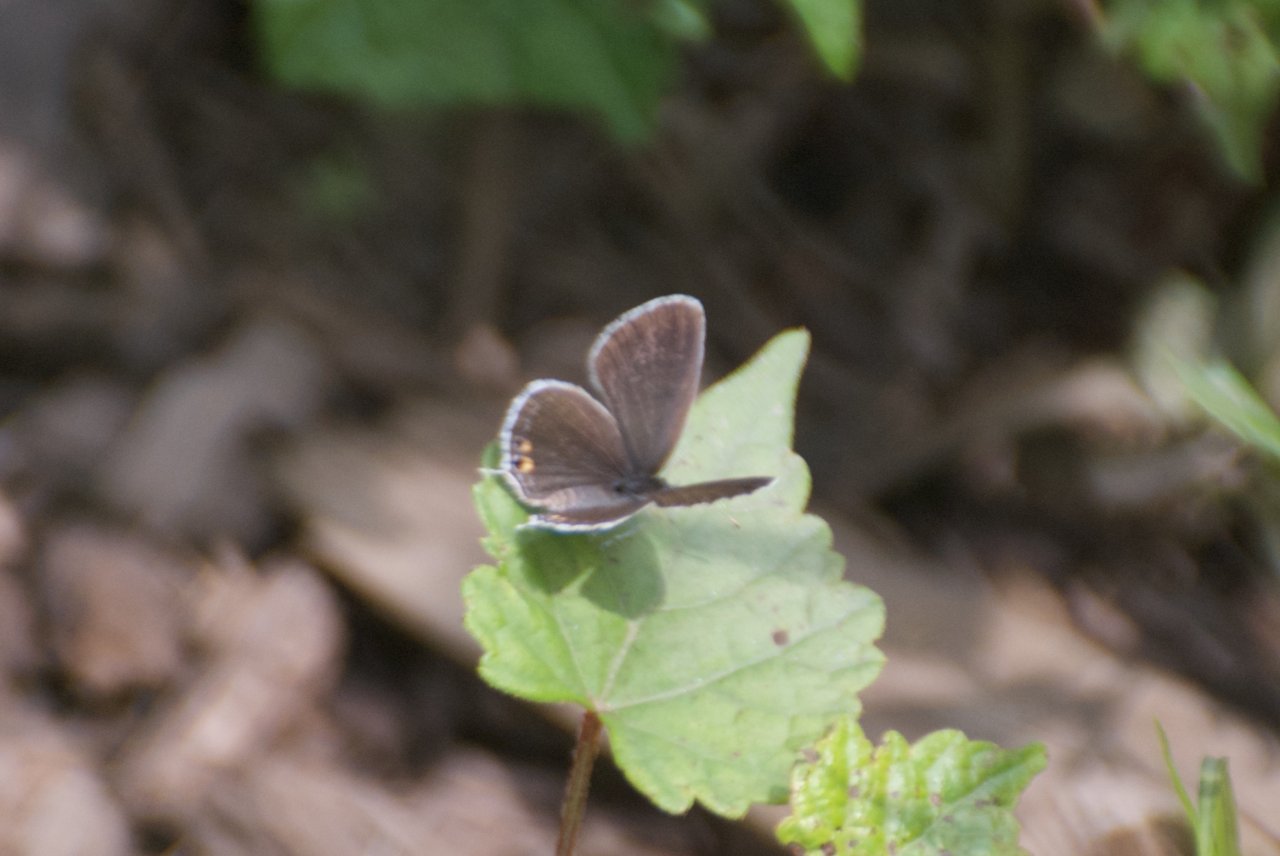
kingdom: Animalia
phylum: Arthropoda
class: Insecta
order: Lepidoptera
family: Lycaenidae
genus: Elkalyce
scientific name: Elkalyce comyntas
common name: Eastern Tailed-Blue
